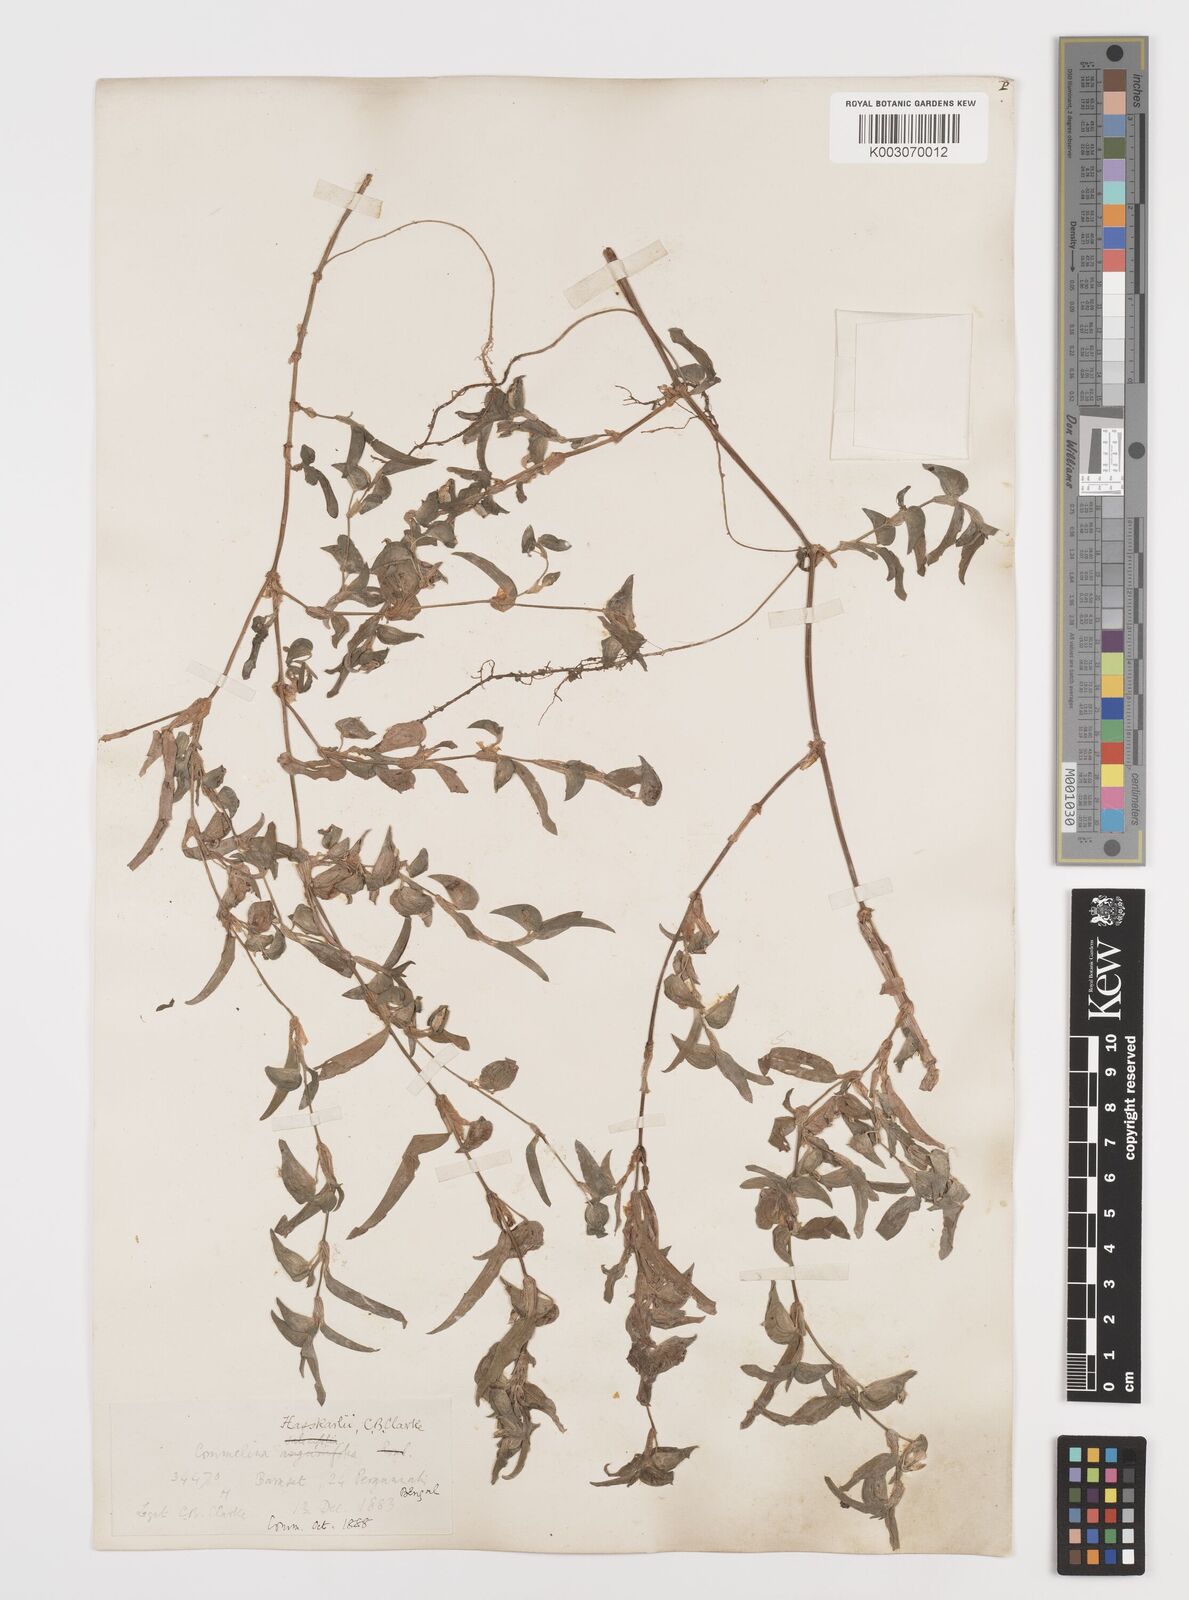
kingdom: Plantae
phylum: Tracheophyta
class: Liliopsida
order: Commelinales
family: Commelinaceae
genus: Commelina
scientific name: Commelina caroliniana
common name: Carolina dayflower
